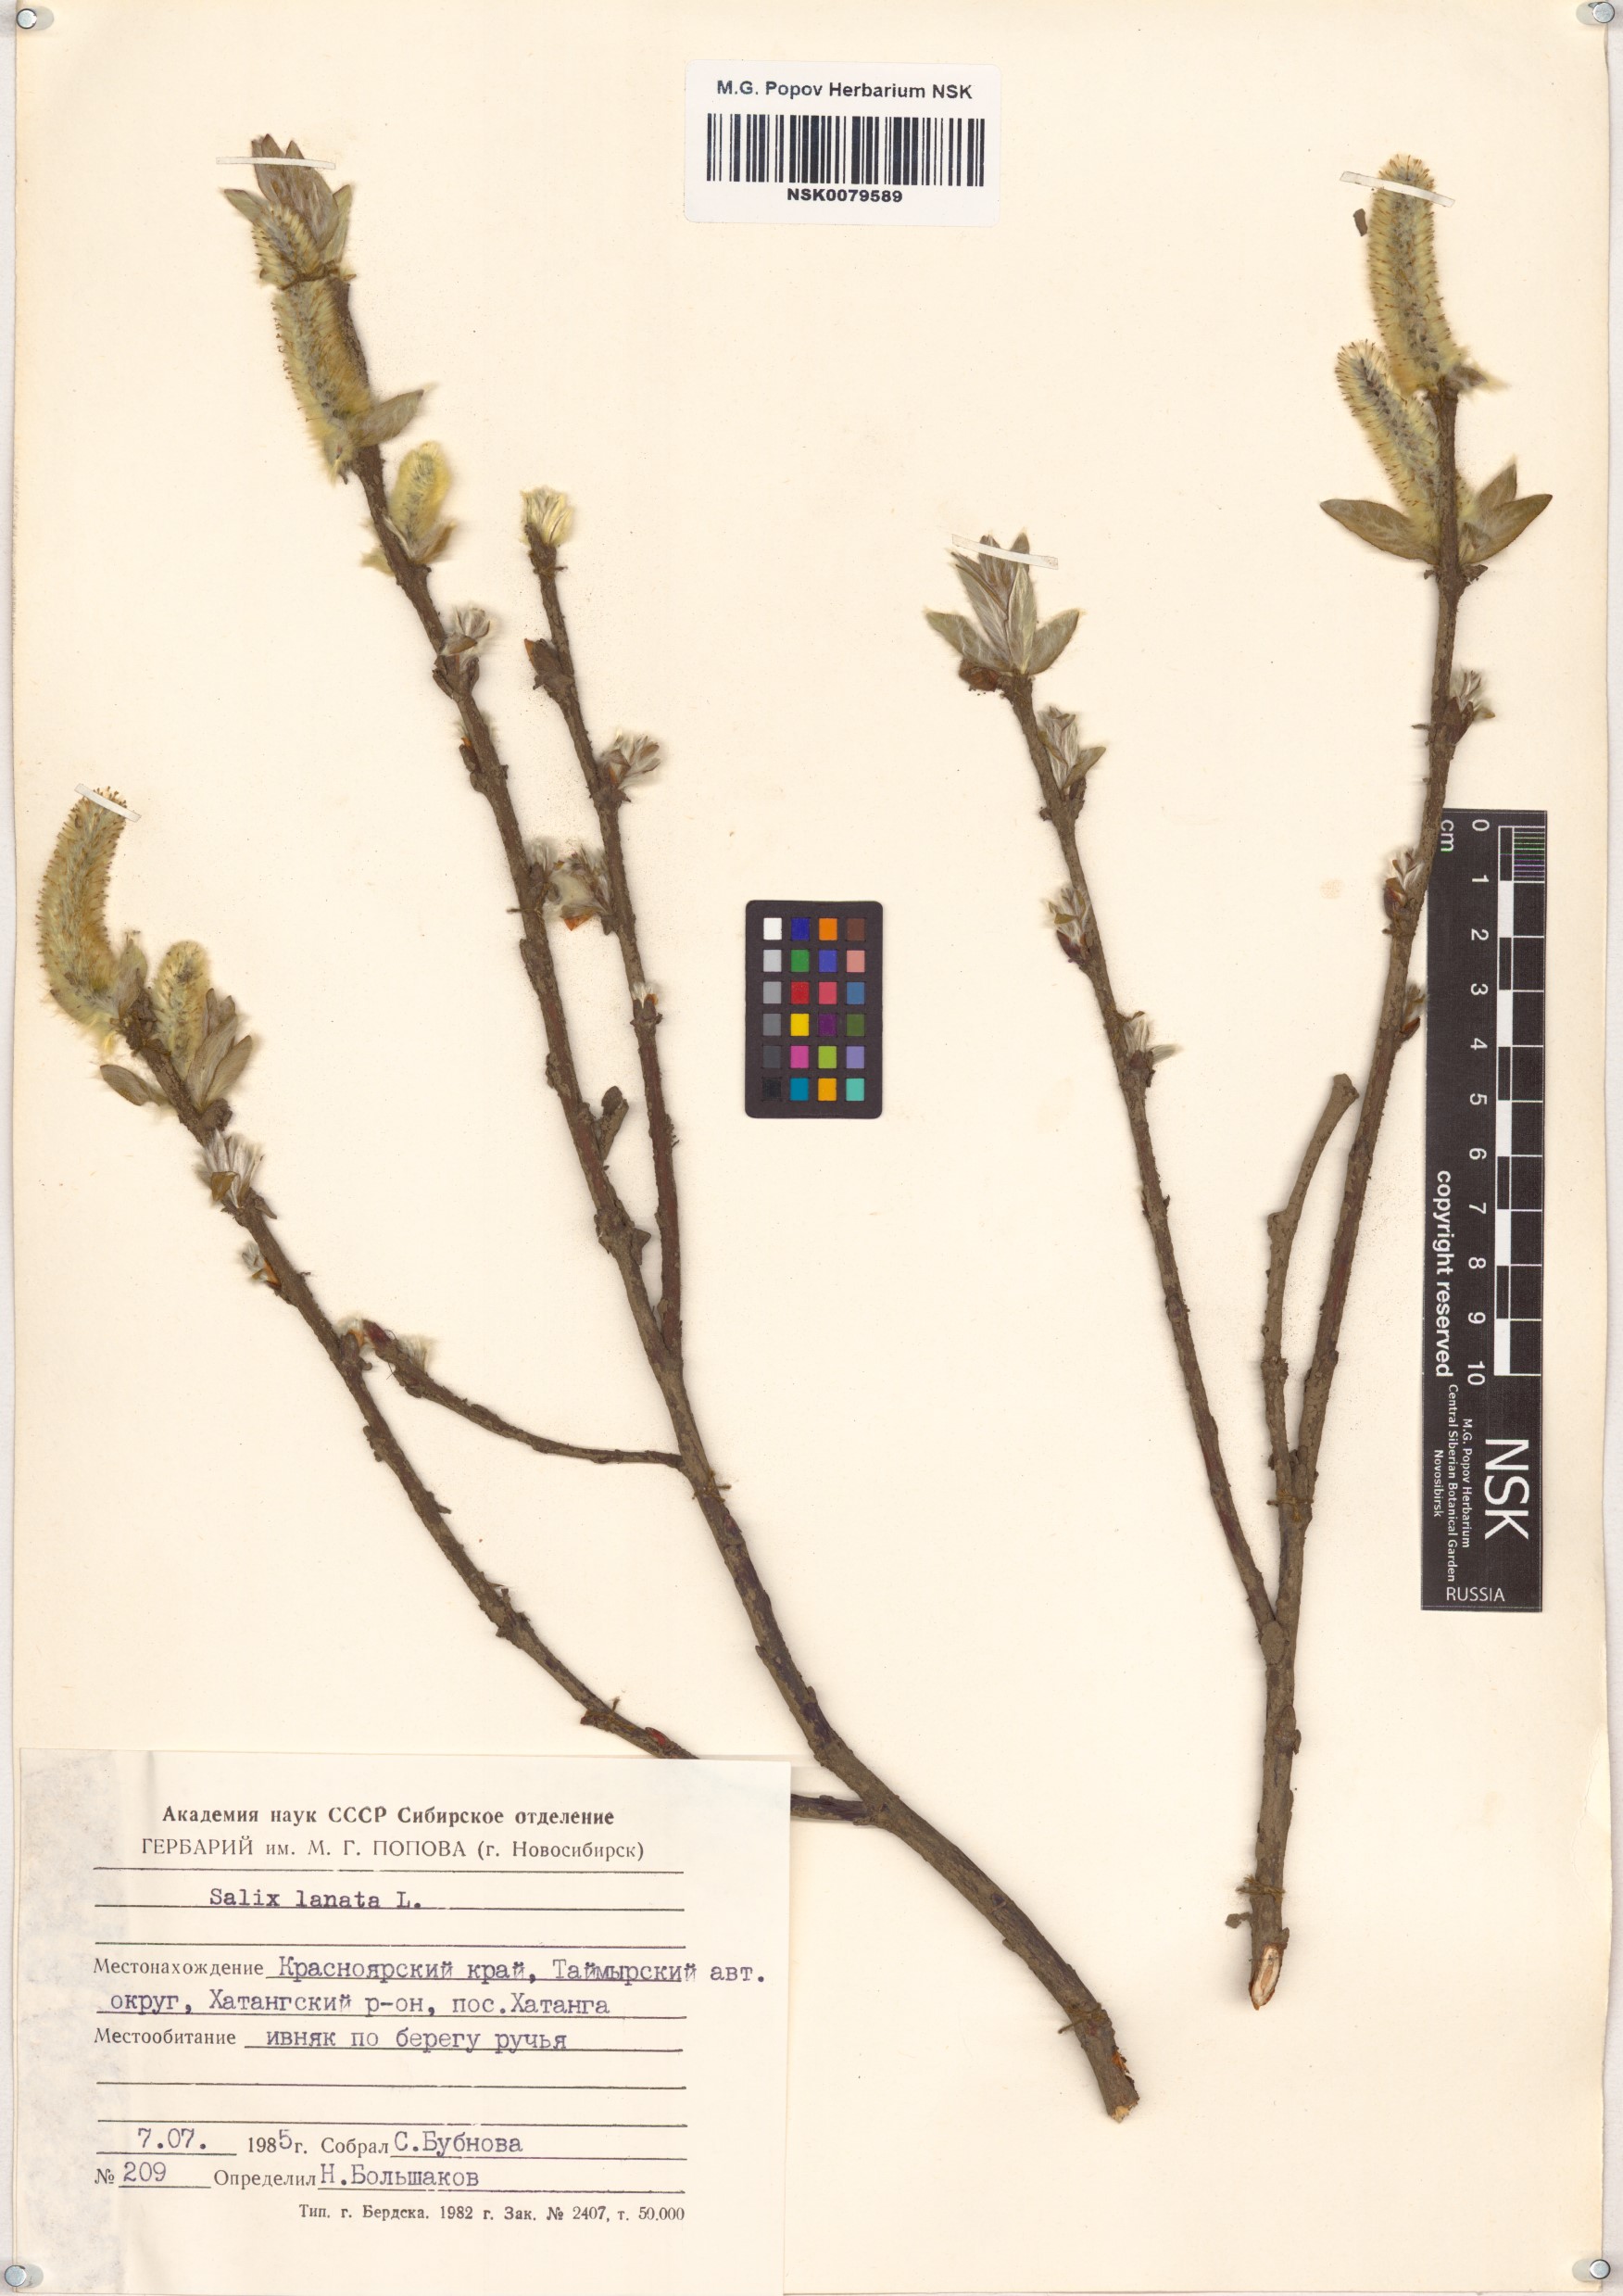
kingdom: Plantae
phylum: Tracheophyta
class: Magnoliopsida
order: Malpighiales
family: Salicaceae
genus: Salix
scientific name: Salix lanata
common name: Woolly willow
